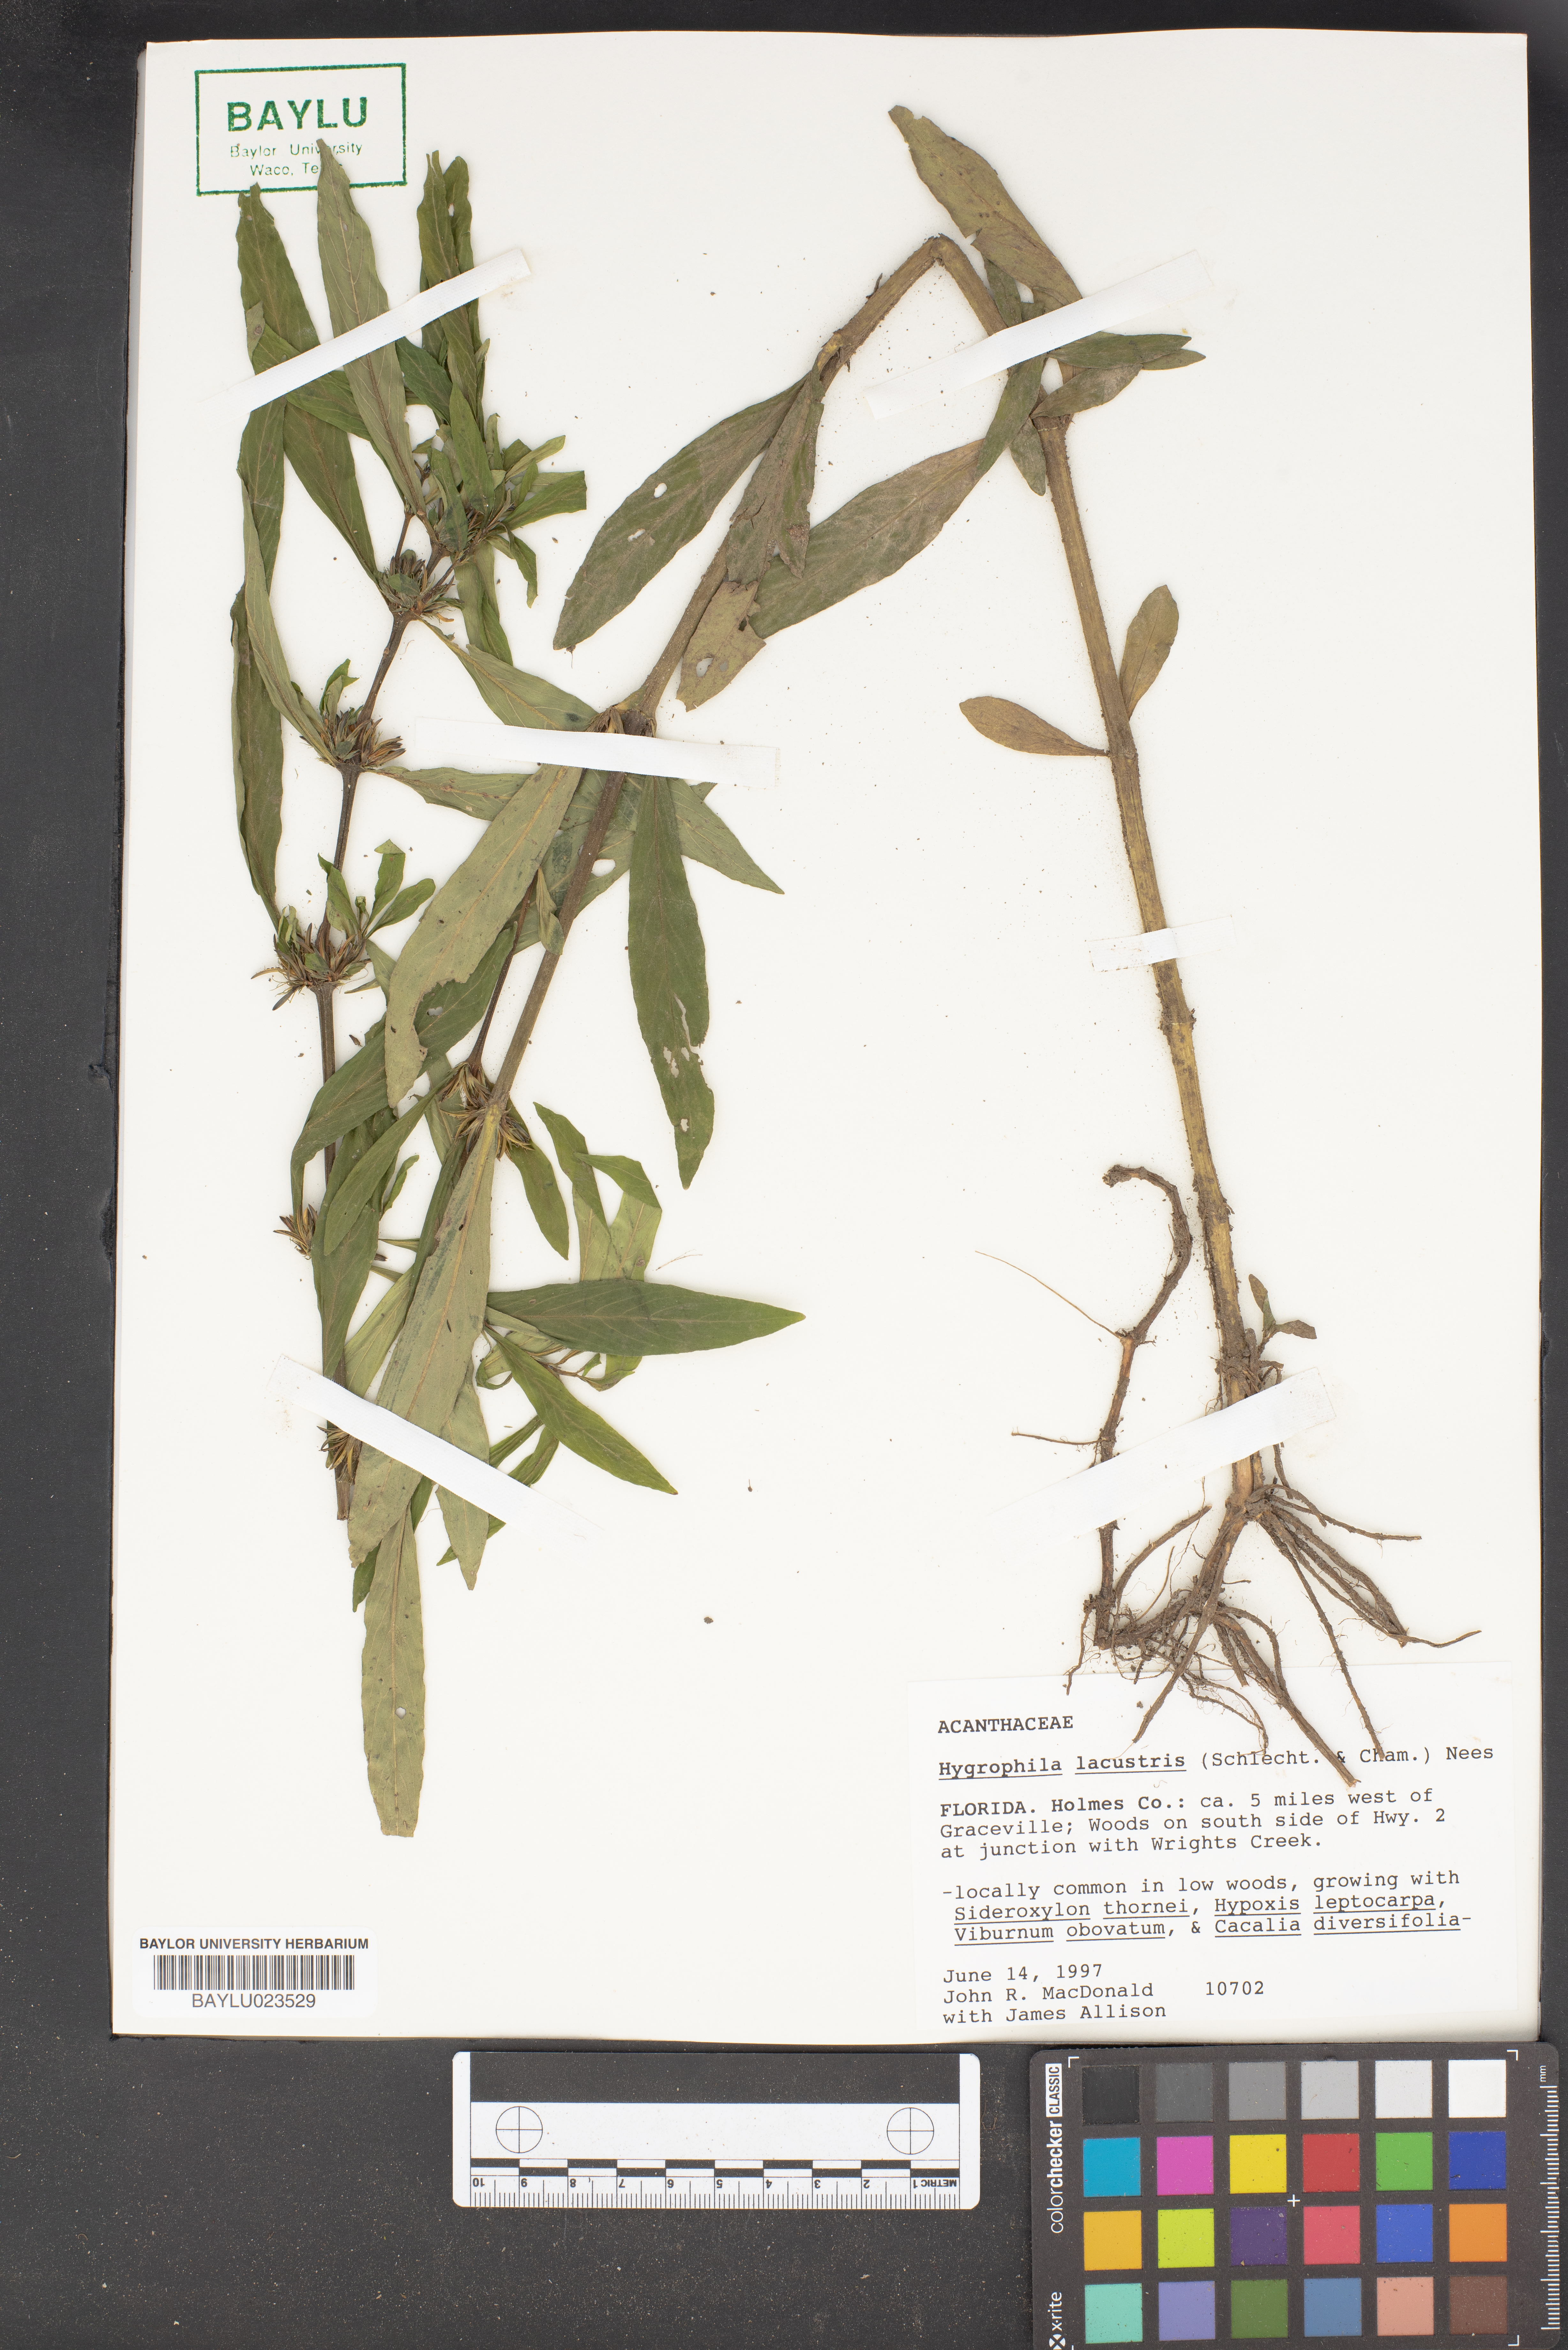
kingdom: Plantae
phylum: Tracheophyta
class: Magnoliopsida
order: Lamiales
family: Acanthaceae
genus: Hygrophila
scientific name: Hygrophila costata
